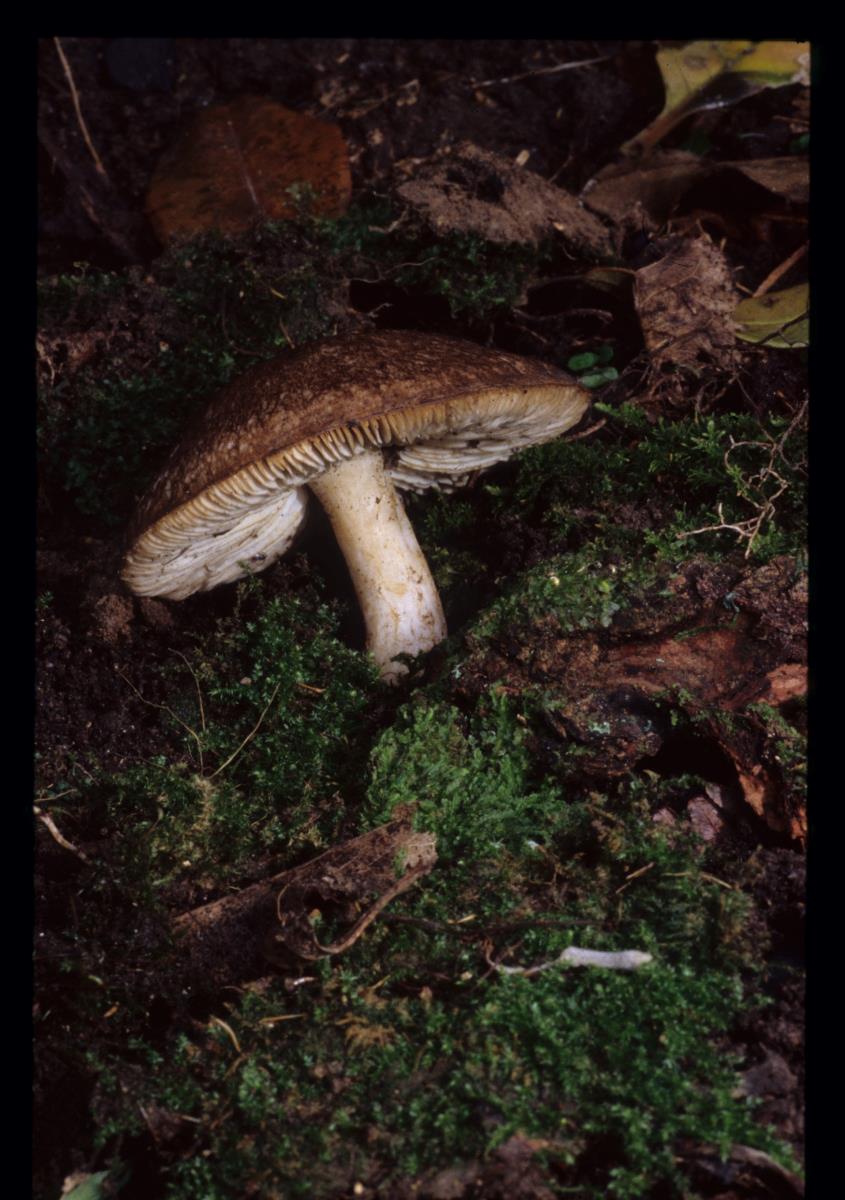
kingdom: Fungi
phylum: Basidiomycota
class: Agaricomycetes
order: Agaricales
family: Tricholomataceae
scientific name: Tricholomataceae
